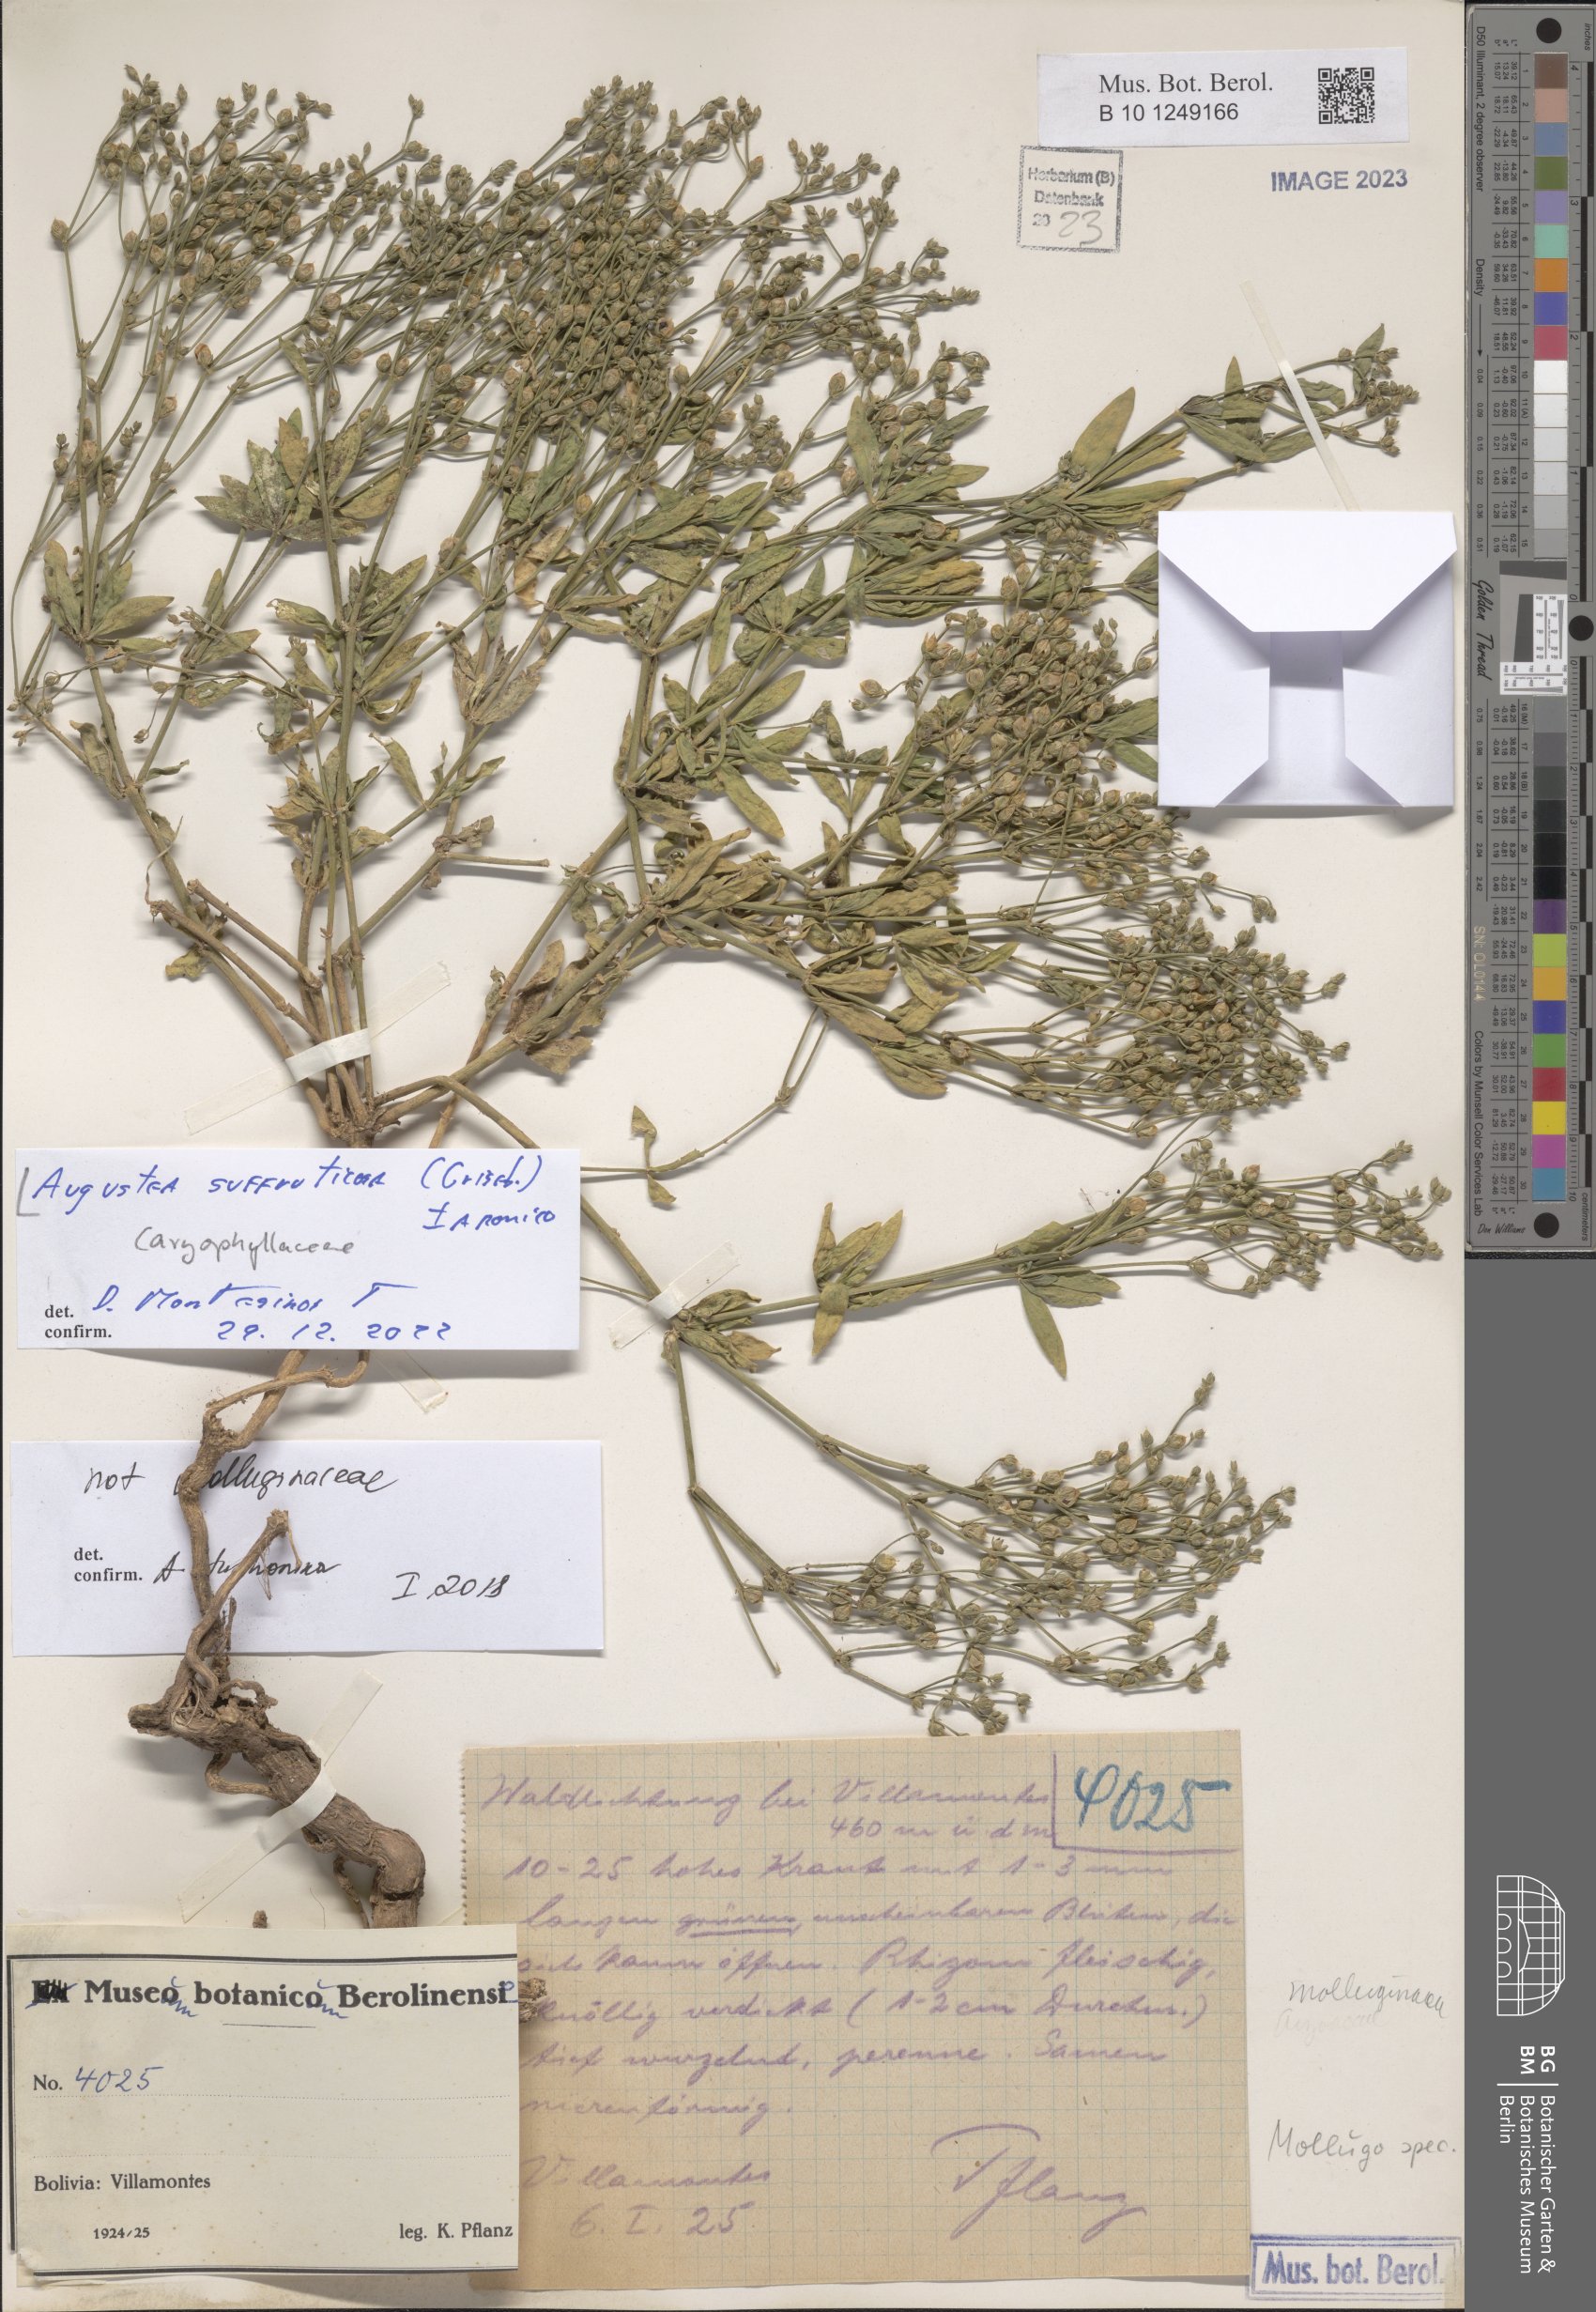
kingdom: Plantae
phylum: Tracheophyta
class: Magnoliopsida
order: Caryophyllales
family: Caryophyllaceae
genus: Augustea
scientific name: Augustea suffruticosa
